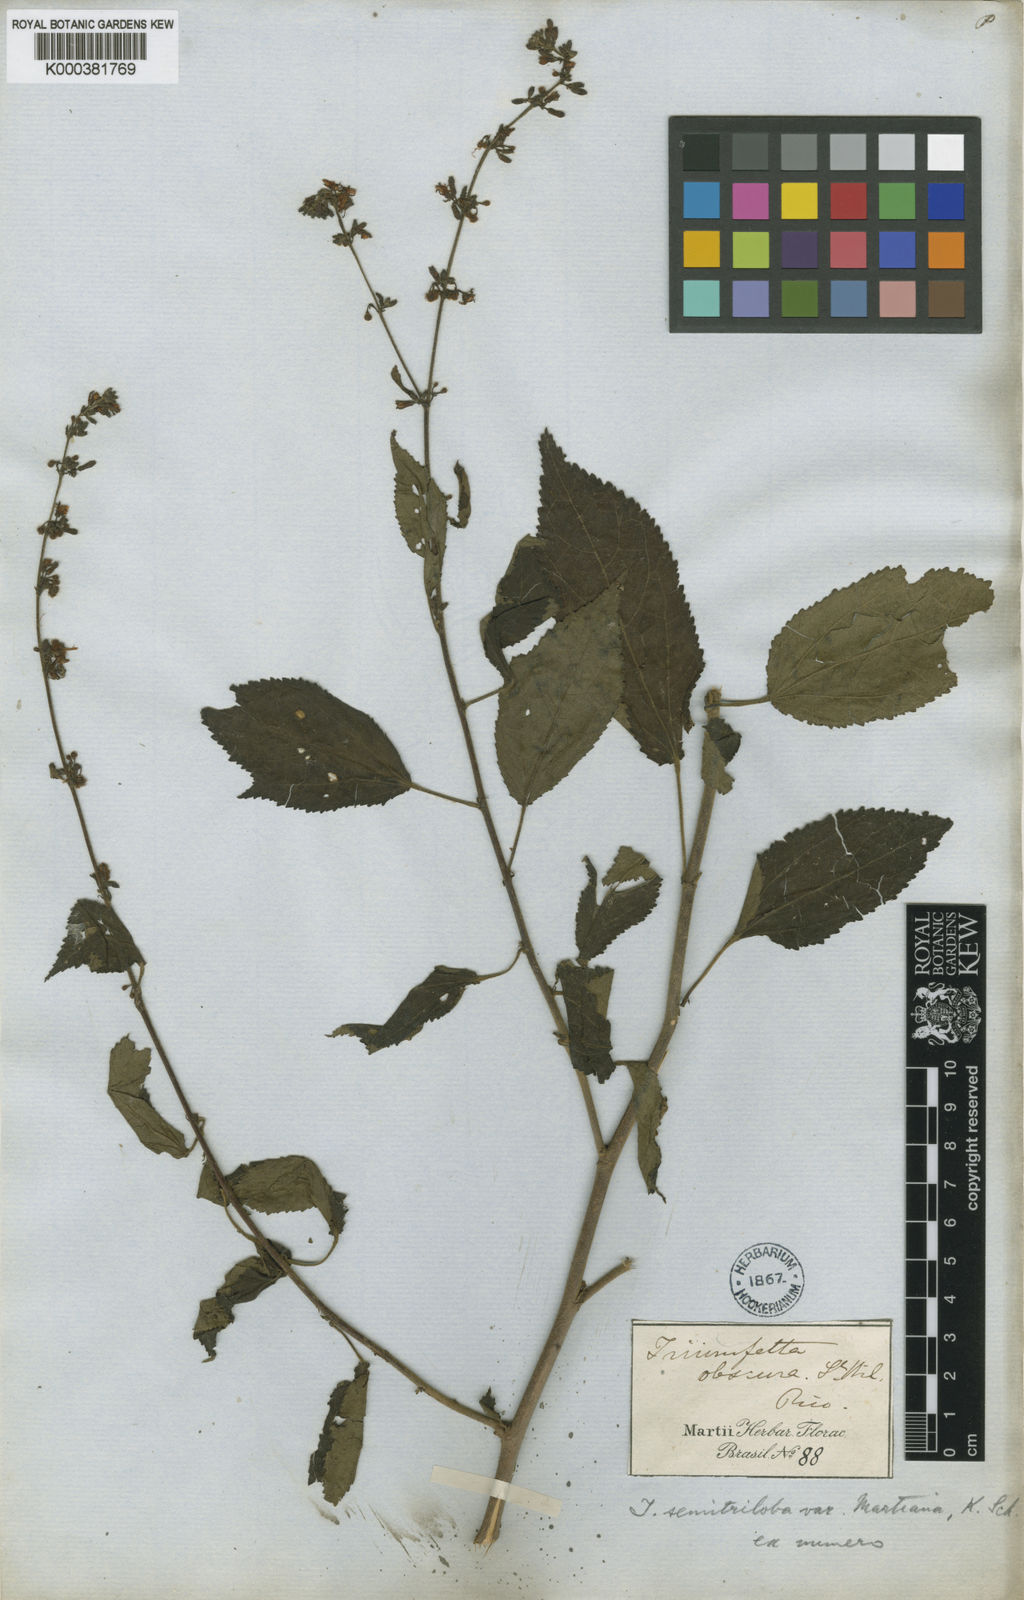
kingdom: Plantae
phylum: Tracheophyta
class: Magnoliopsida
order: Malvales
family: Malvaceae
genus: Triumfetta
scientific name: Triumfetta semitriloba
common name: Sacramento burbark
